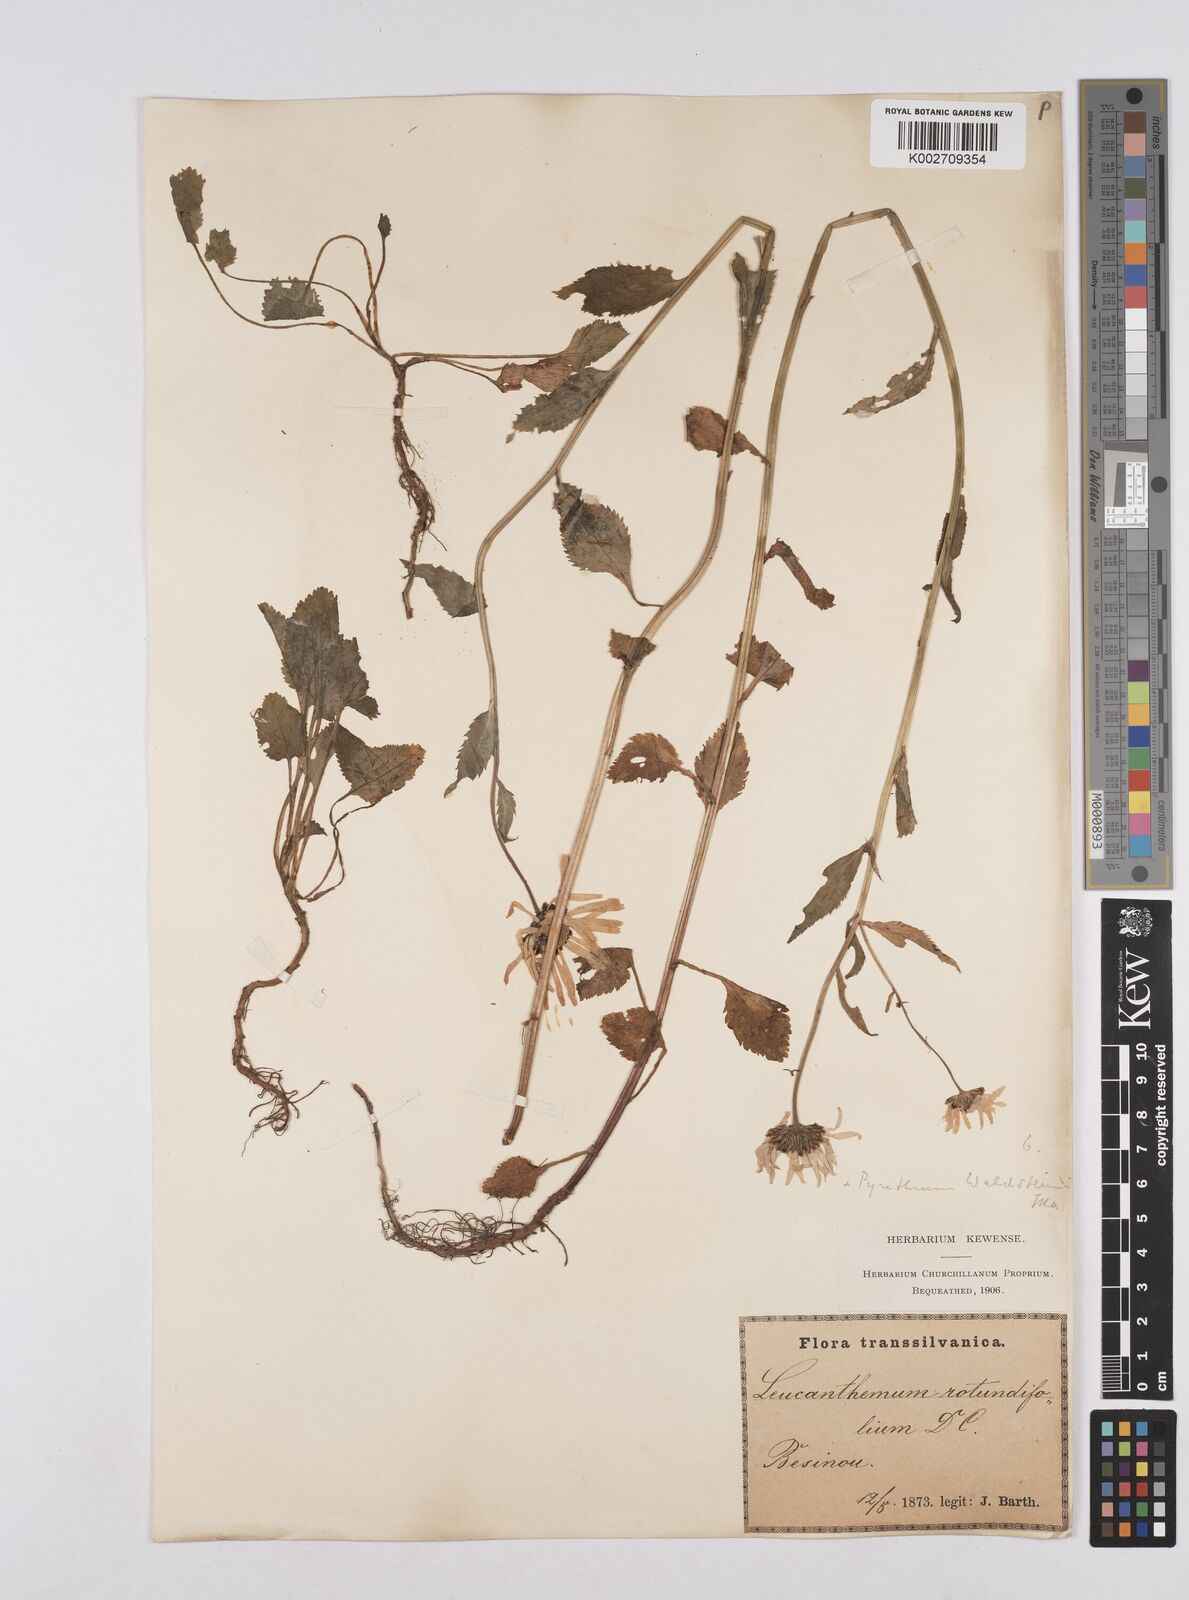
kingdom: Plantae
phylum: Tracheophyta
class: Magnoliopsida
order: Asterales
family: Asteraceae
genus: Leucanthemum
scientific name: Leucanthemum rotundifolium
